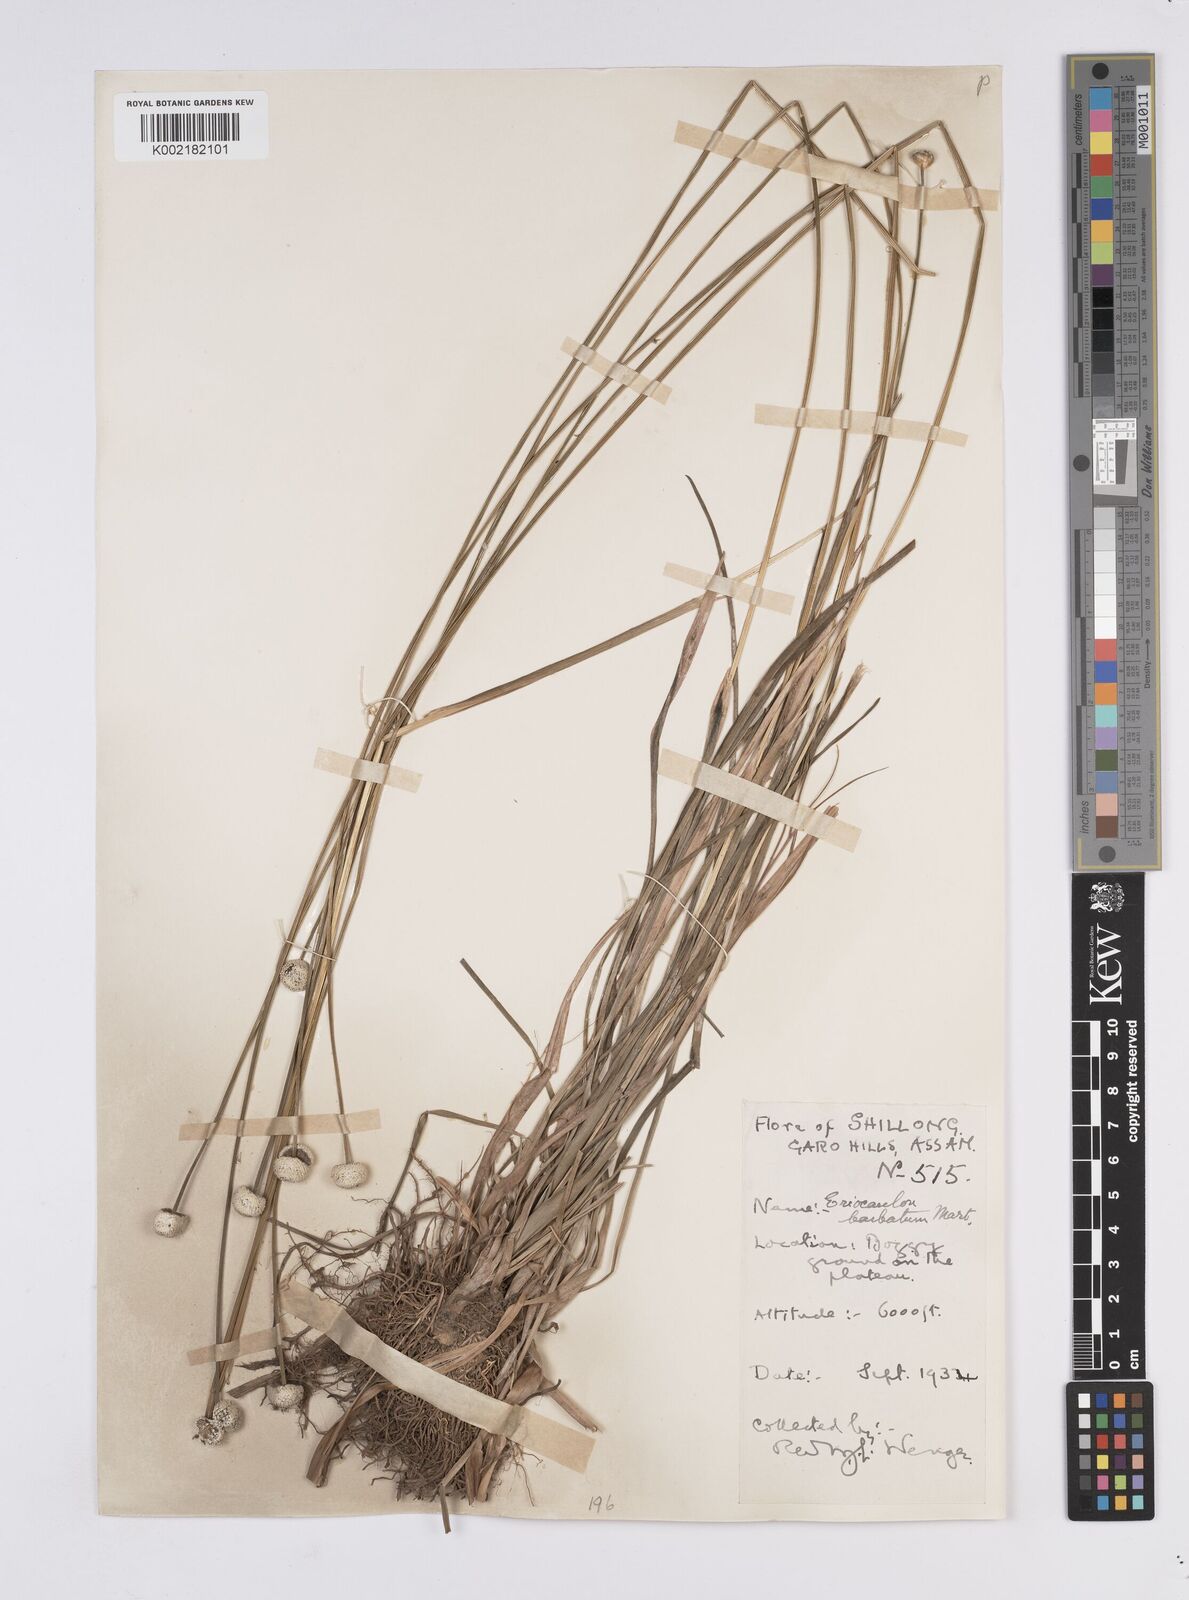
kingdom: Plantae
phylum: Tracheophyta
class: Liliopsida
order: Poales
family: Eriocaulaceae
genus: Eriocaulon
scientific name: Eriocaulon
